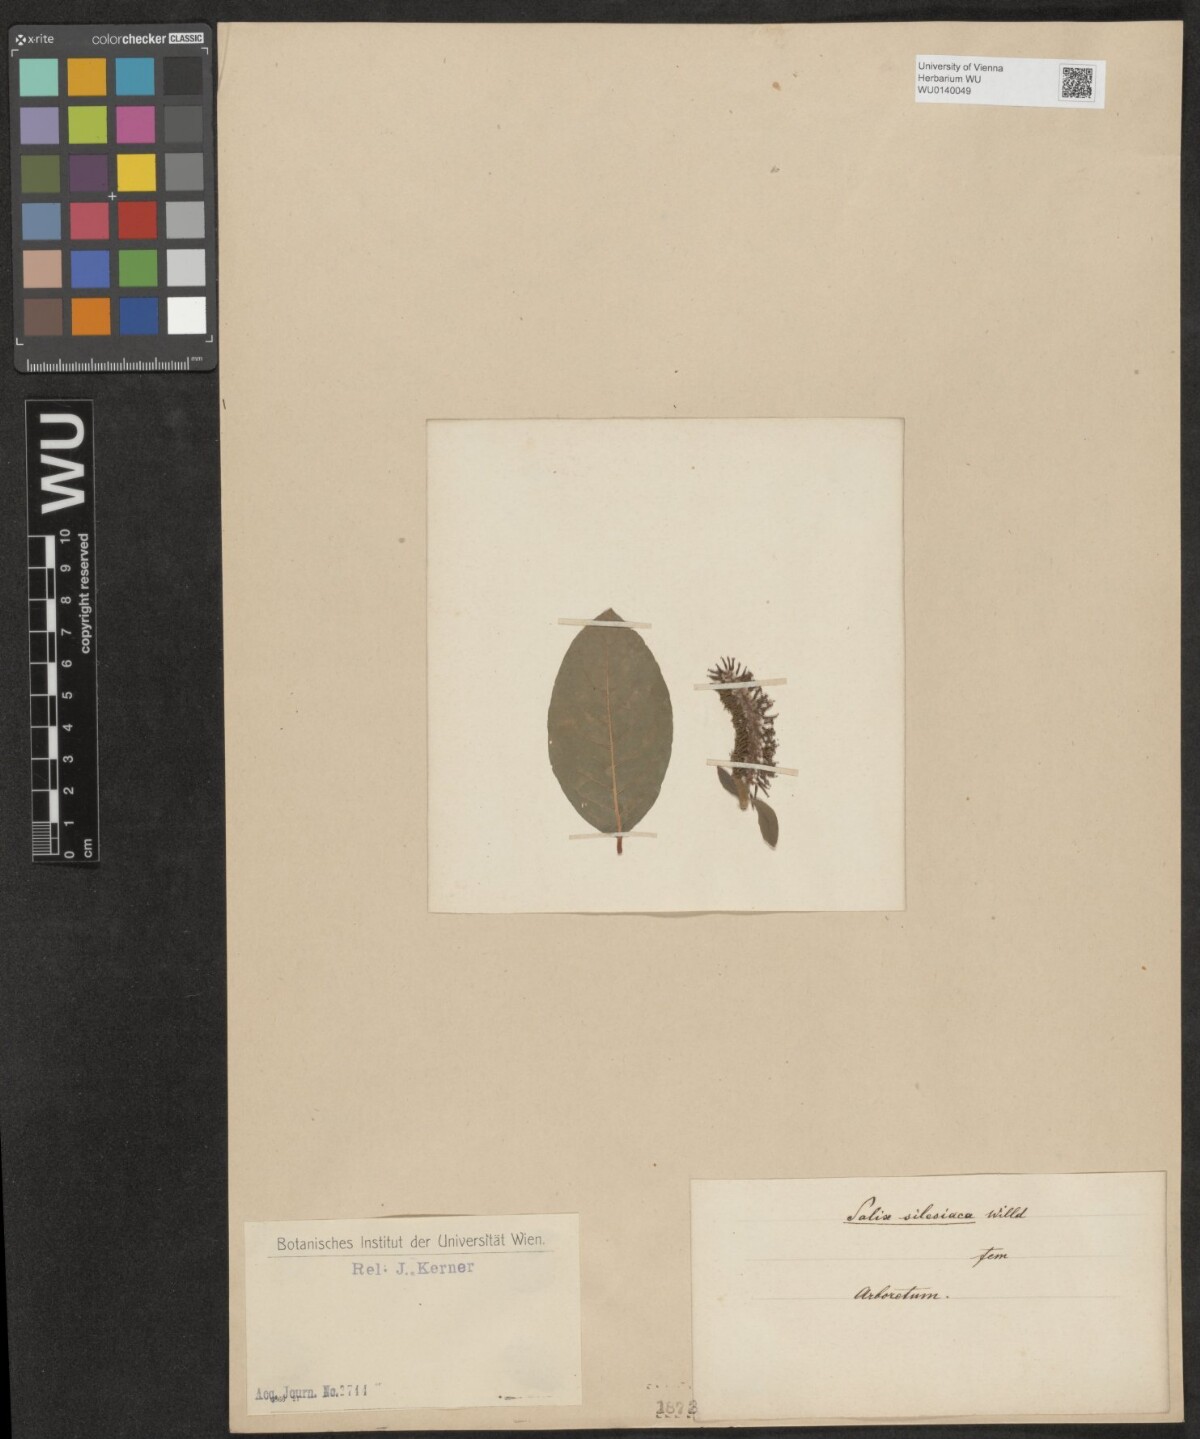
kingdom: Plantae
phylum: Tracheophyta
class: Magnoliopsida
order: Malpighiales
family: Salicaceae
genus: Salix
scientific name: Salix silesiaca
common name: Silesian willow
